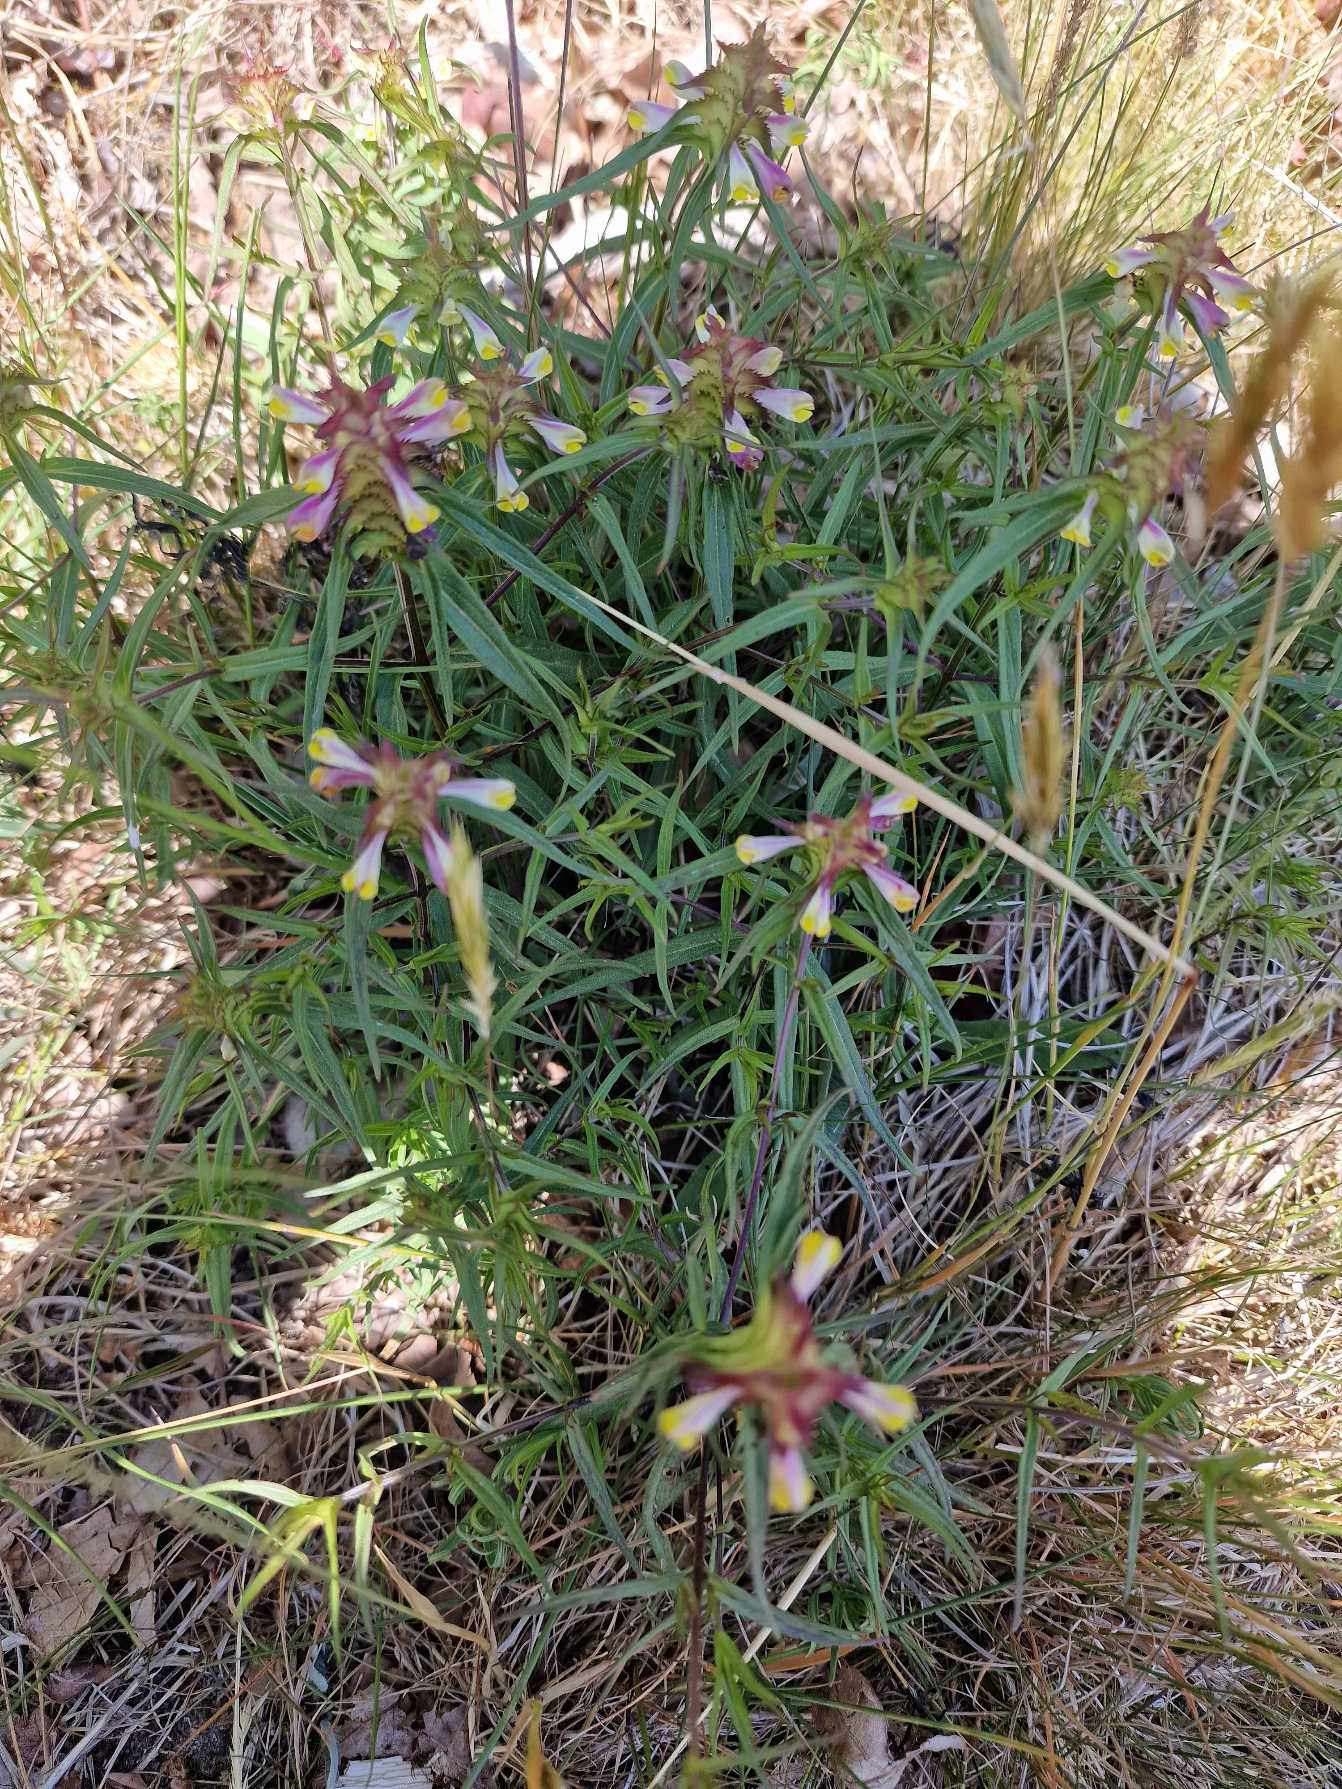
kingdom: Plantae
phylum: Tracheophyta
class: Magnoliopsida
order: Lamiales
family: Orobanchaceae
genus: Melampyrum
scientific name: Melampyrum cristatum
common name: Kantet kohvede
